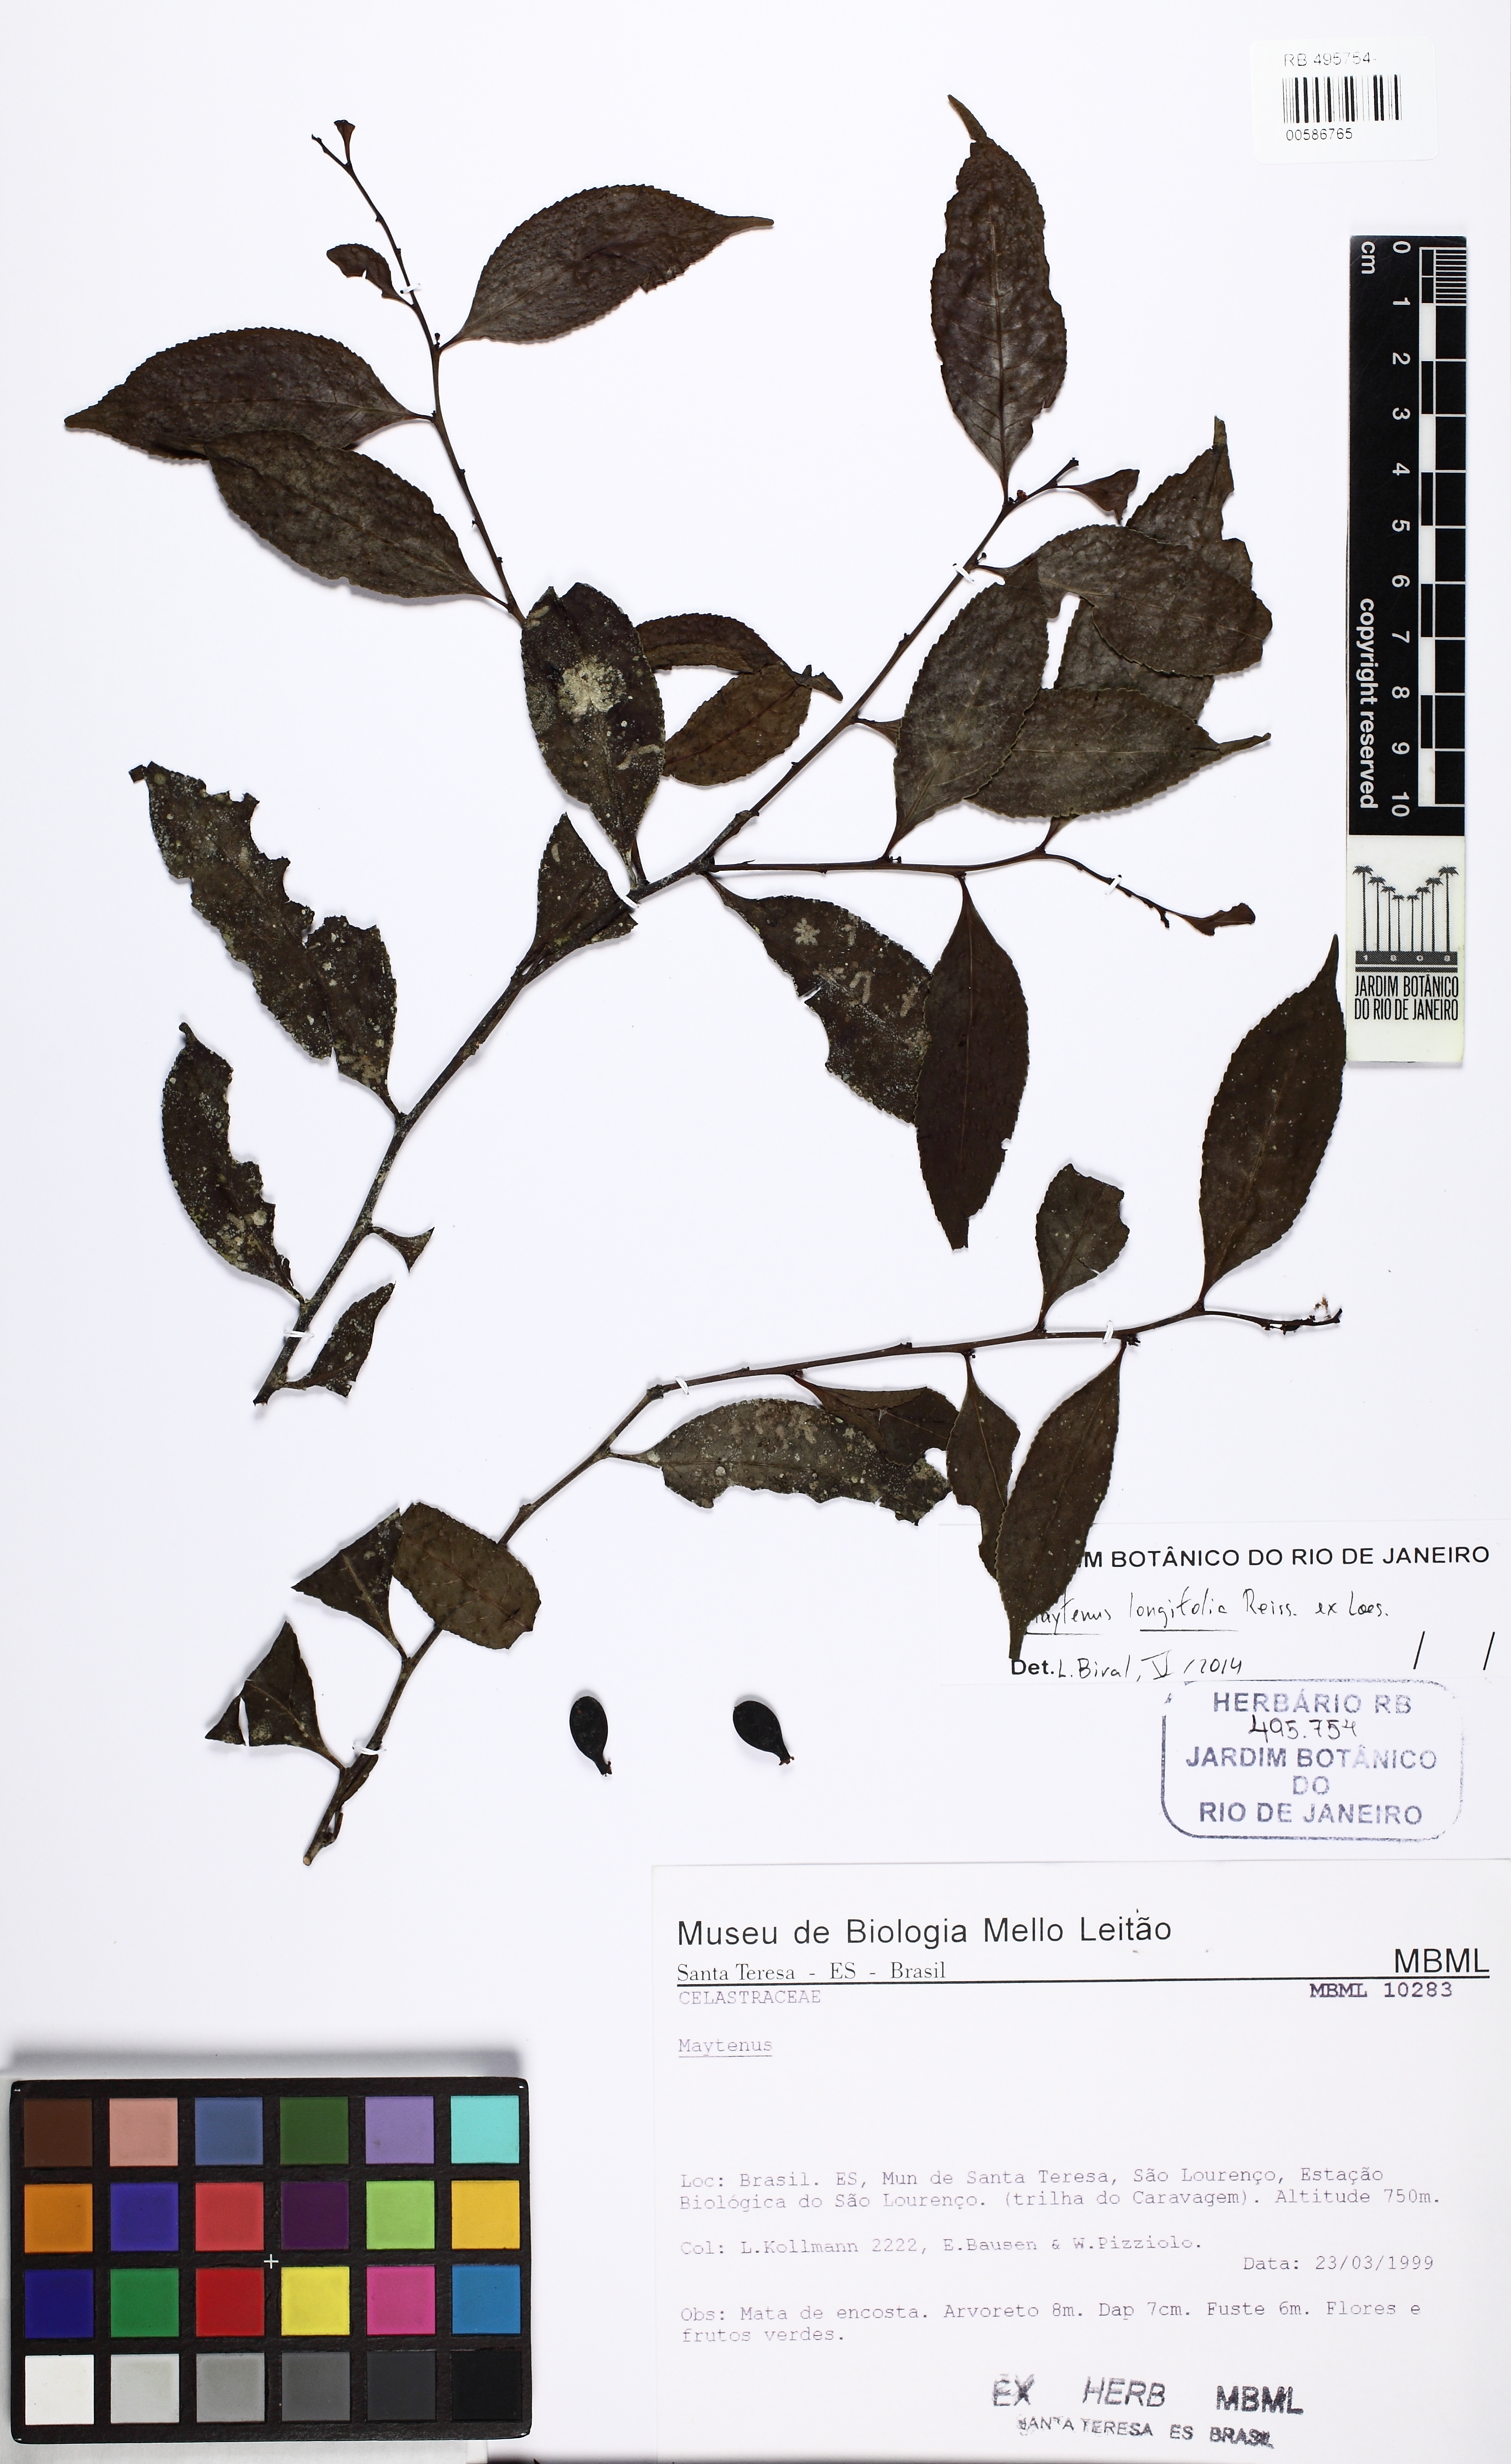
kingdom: Plantae
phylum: Tracheophyta
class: Magnoliopsida
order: Celastrales
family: Celastraceae
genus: Monteverdia
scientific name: Monteverdia longifolia
